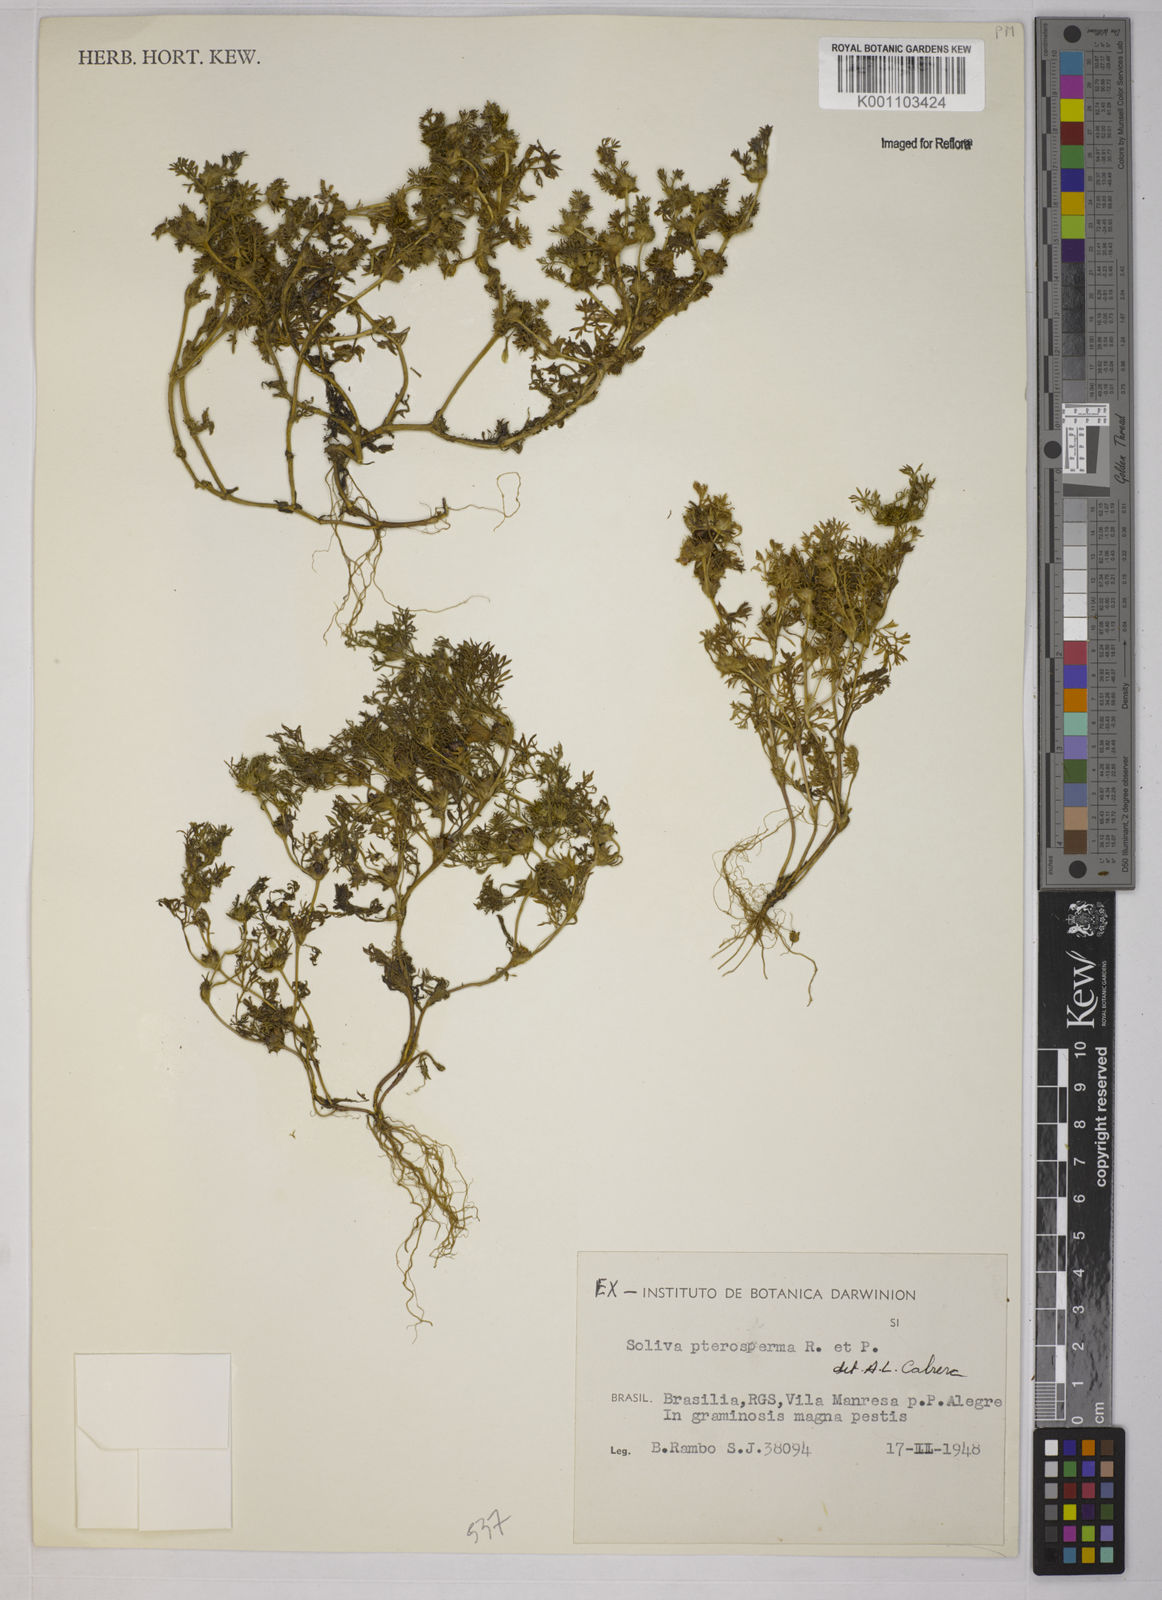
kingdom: Plantae
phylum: Tracheophyta
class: Magnoliopsida
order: Asterales
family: Asteraceae
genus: Soliva
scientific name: Soliva sessilis
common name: Field burrweed
